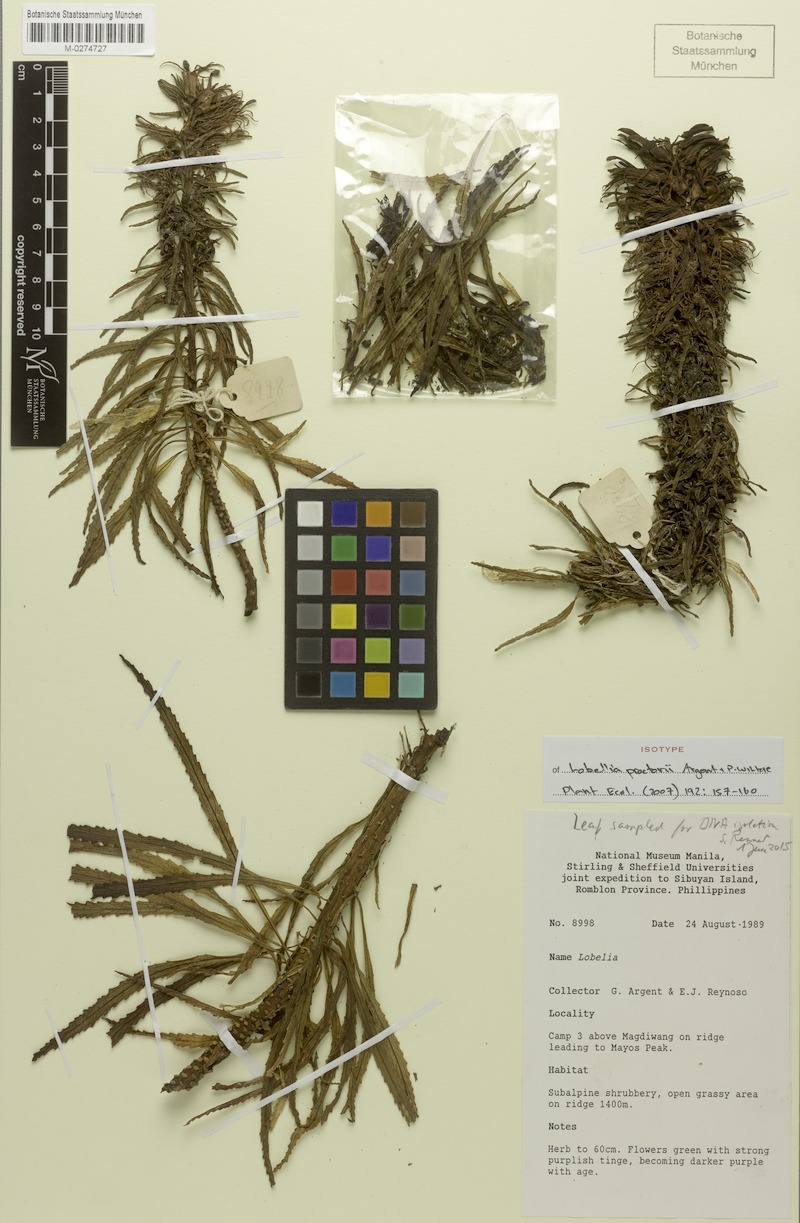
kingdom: Plantae
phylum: Tracheophyta
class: Magnoliopsida
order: Asterales
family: Campanulaceae
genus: Lobelia
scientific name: Lobelia proctorii
